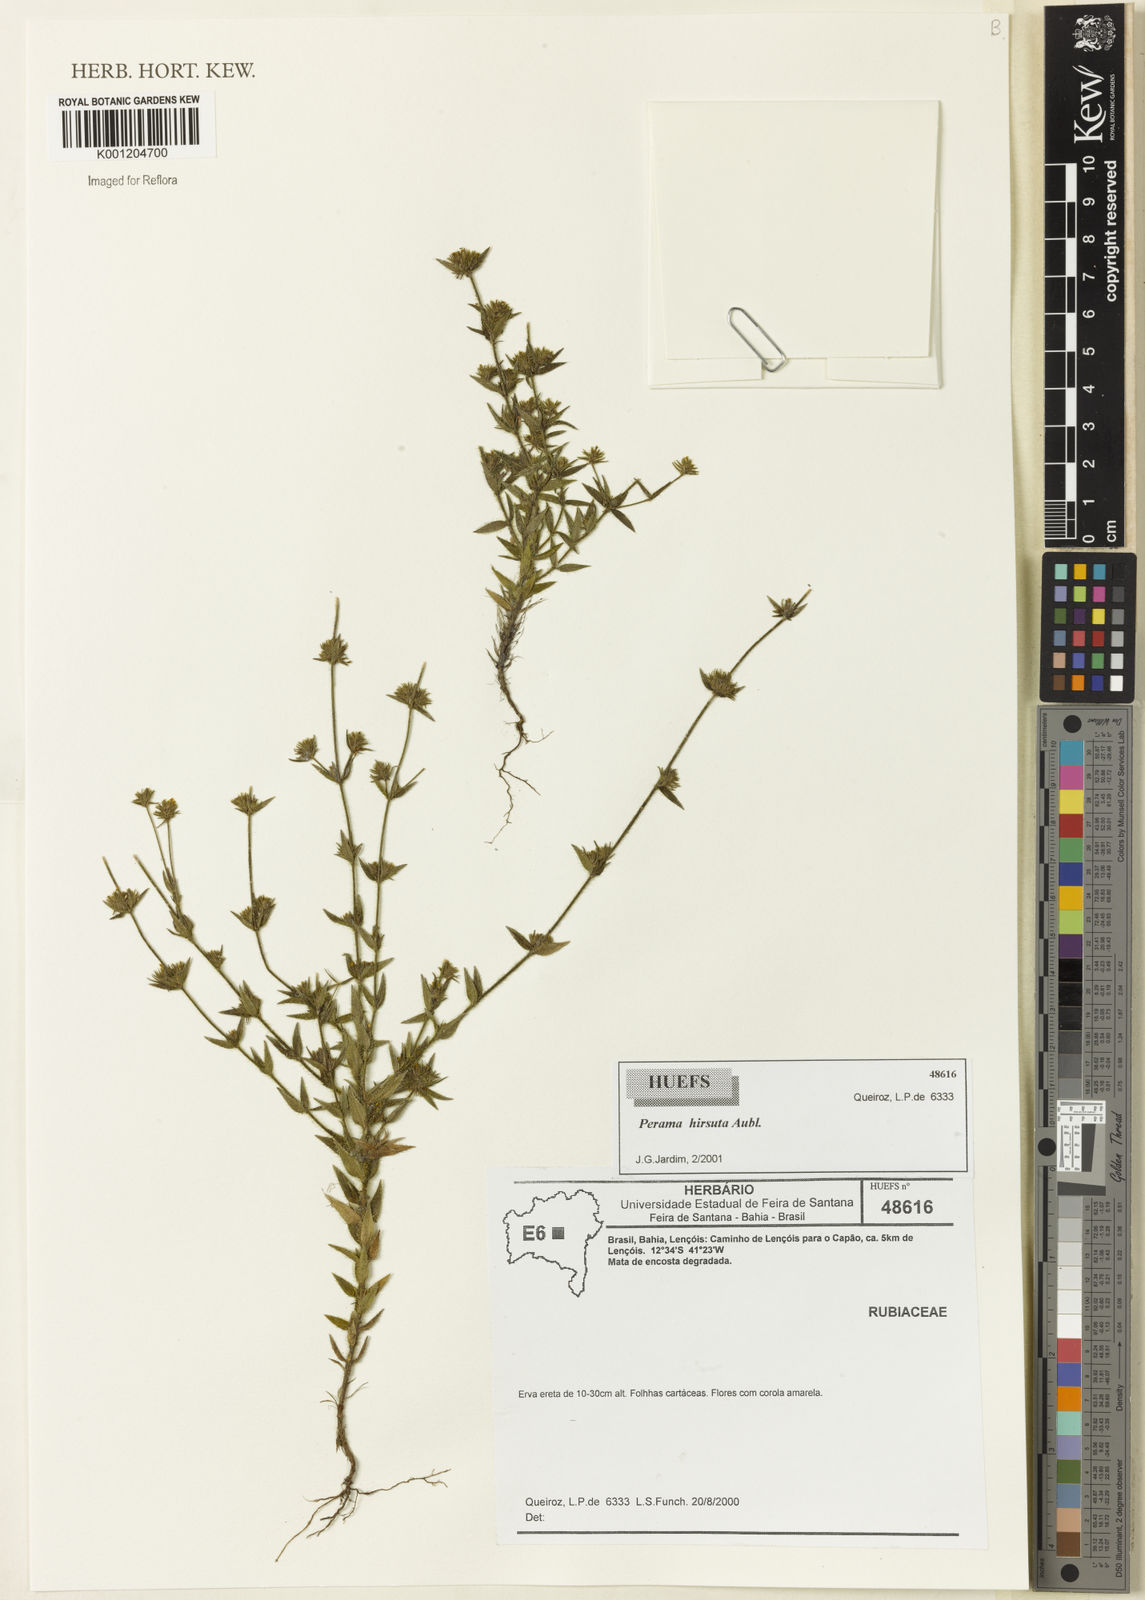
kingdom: Plantae
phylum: Tracheophyta
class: Magnoliopsida
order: Gentianales
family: Rubiaceae
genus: Perama
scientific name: Perama hirsuta
